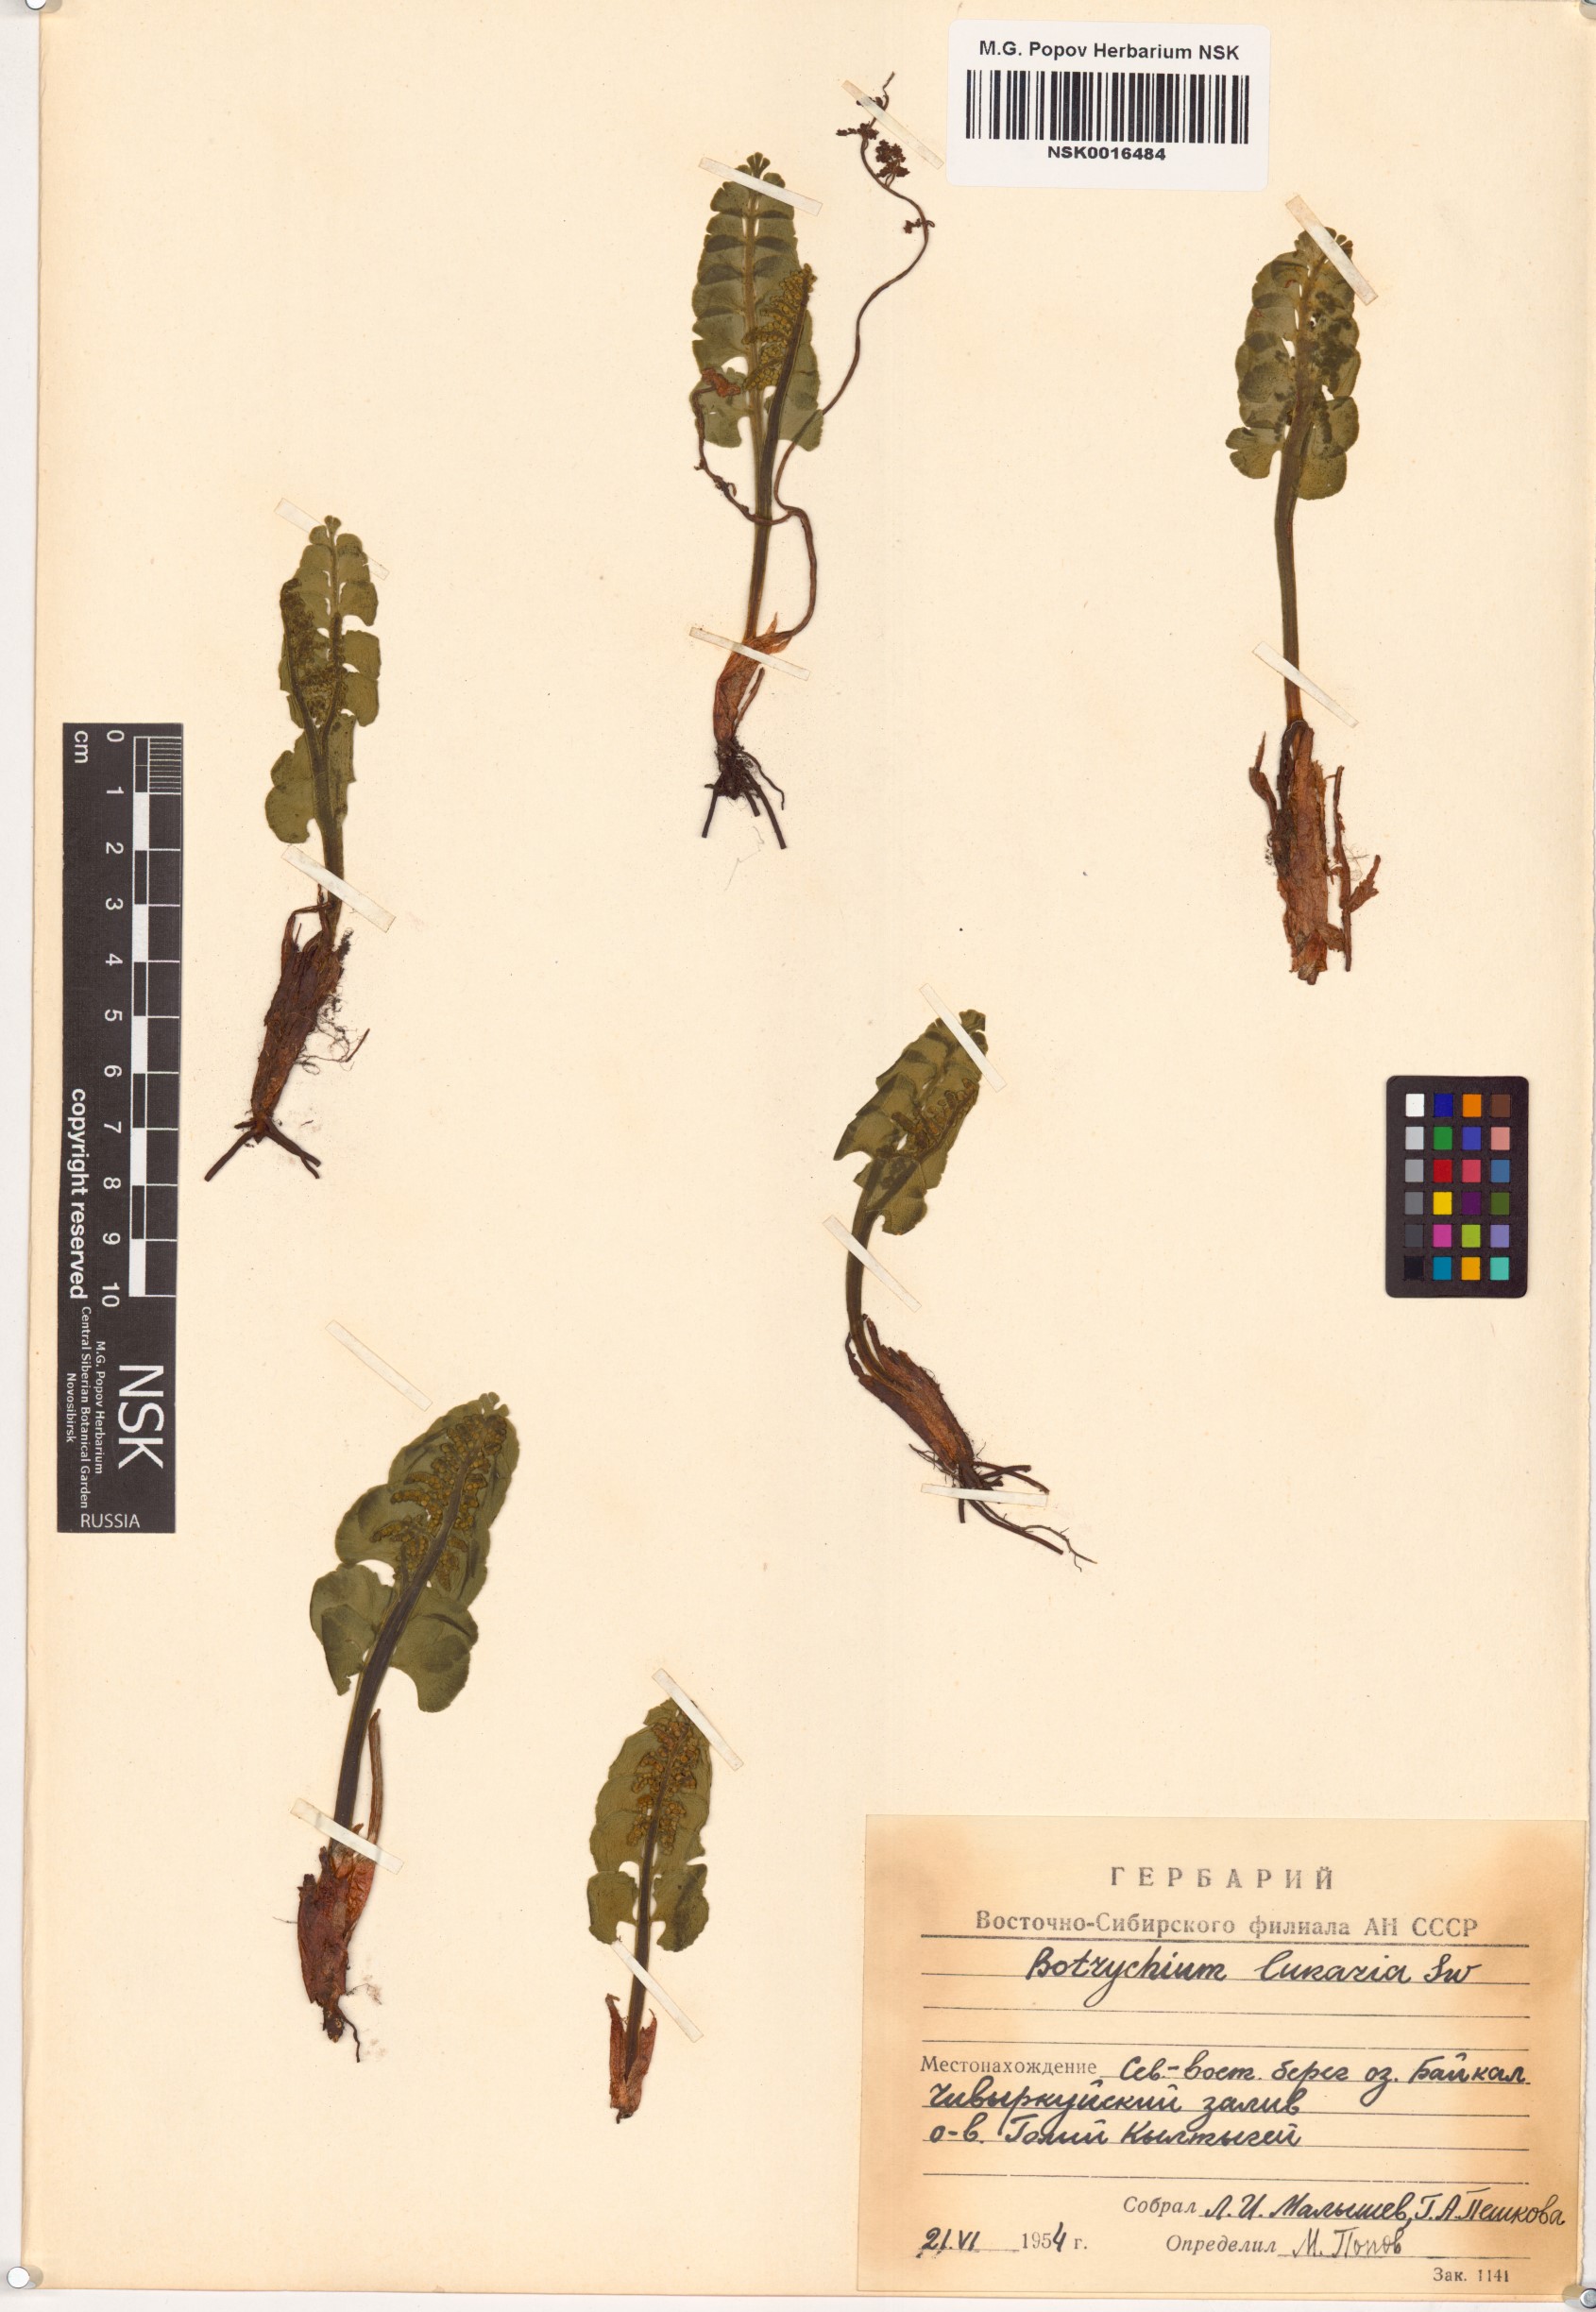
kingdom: Plantae
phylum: Tracheophyta
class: Polypodiopsida
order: Ophioglossales
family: Ophioglossaceae
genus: Botrychium
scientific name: Botrychium lunaria
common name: Moonwort
